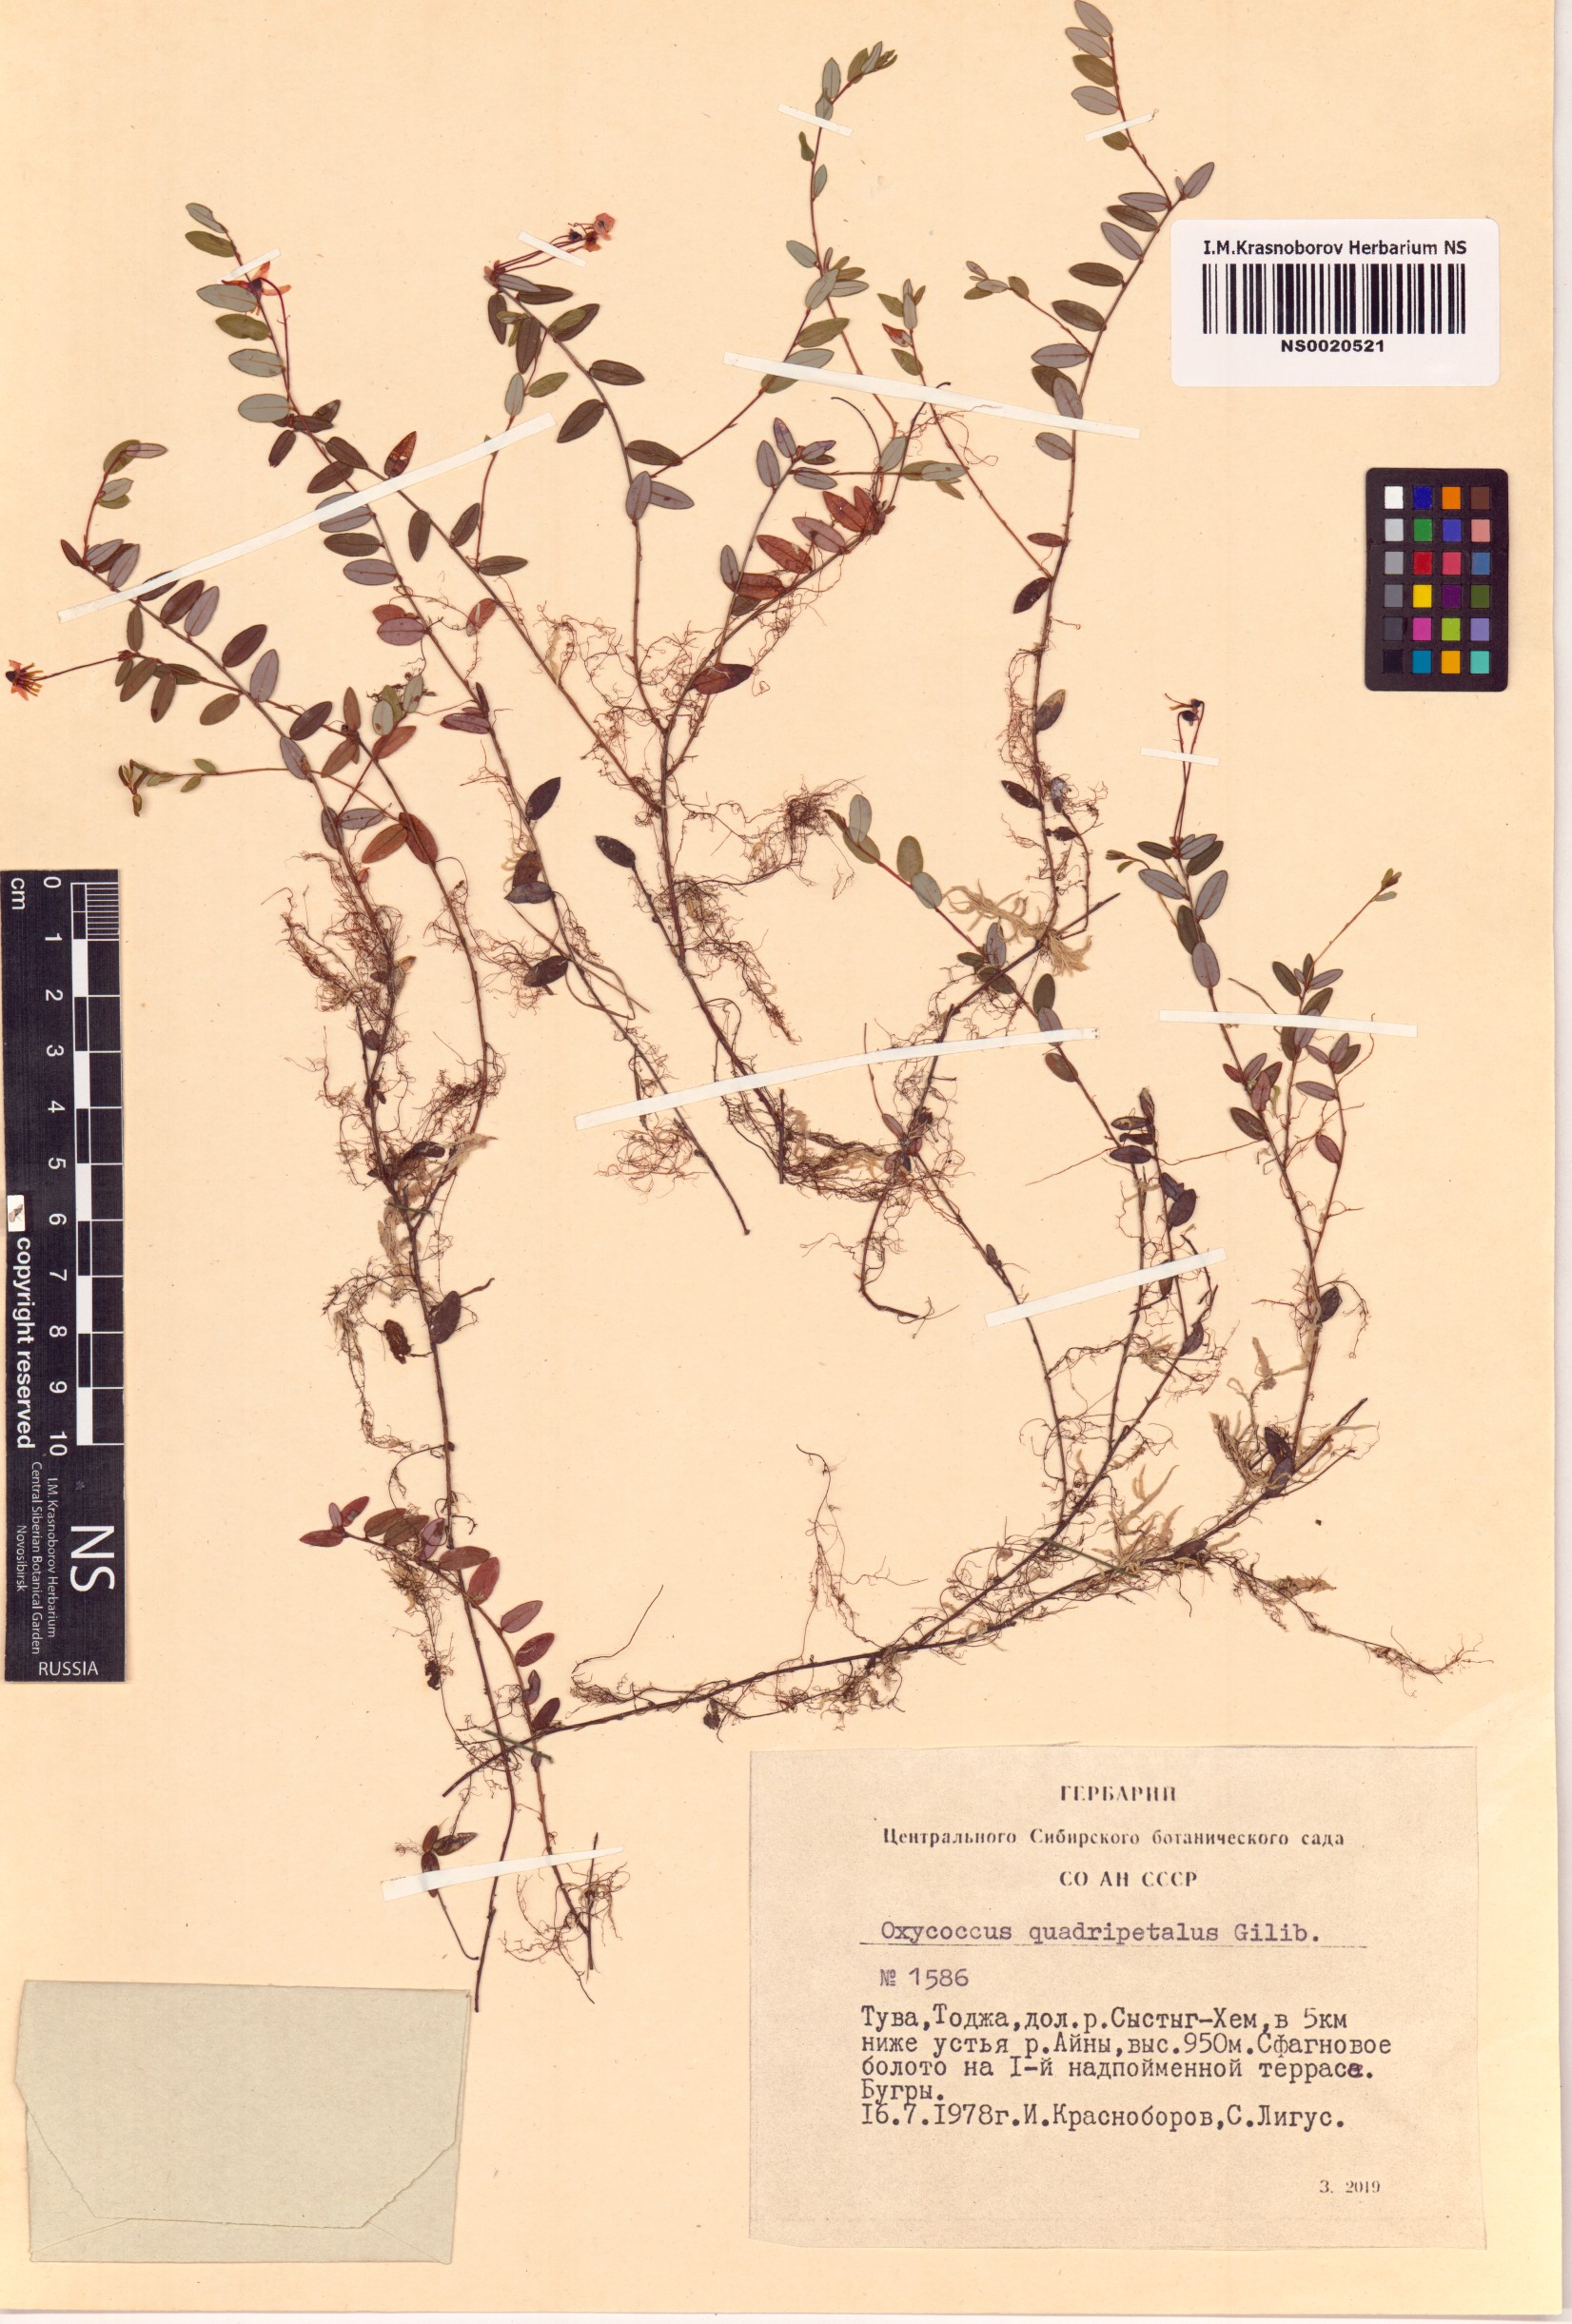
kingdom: Plantae
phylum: Tracheophyta
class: Magnoliopsida
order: Ericales
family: Ericaceae
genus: Vaccinium
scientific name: Vaccinium oxycoccos
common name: Cranberry
